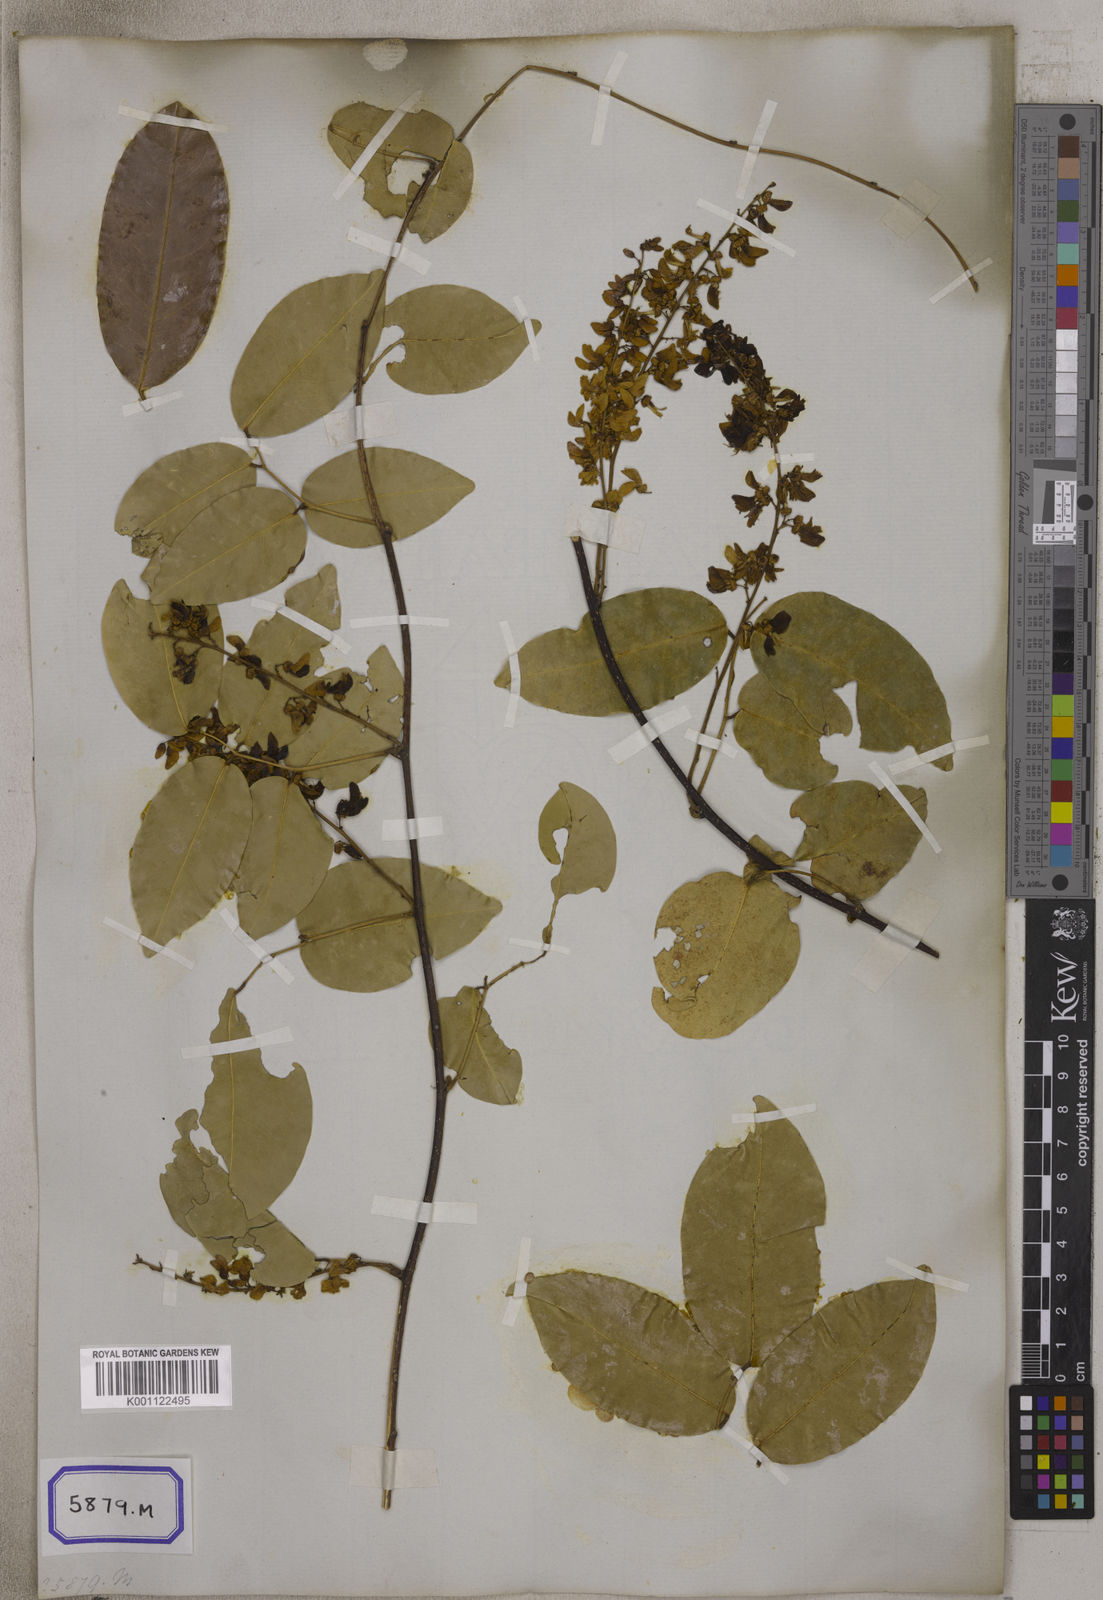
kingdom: Plantae
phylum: Tracheophyta
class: Magnoliopsida
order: Fabales
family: Fabaceae
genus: Derris
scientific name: Derris trifoliata
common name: Three-leaf derris
